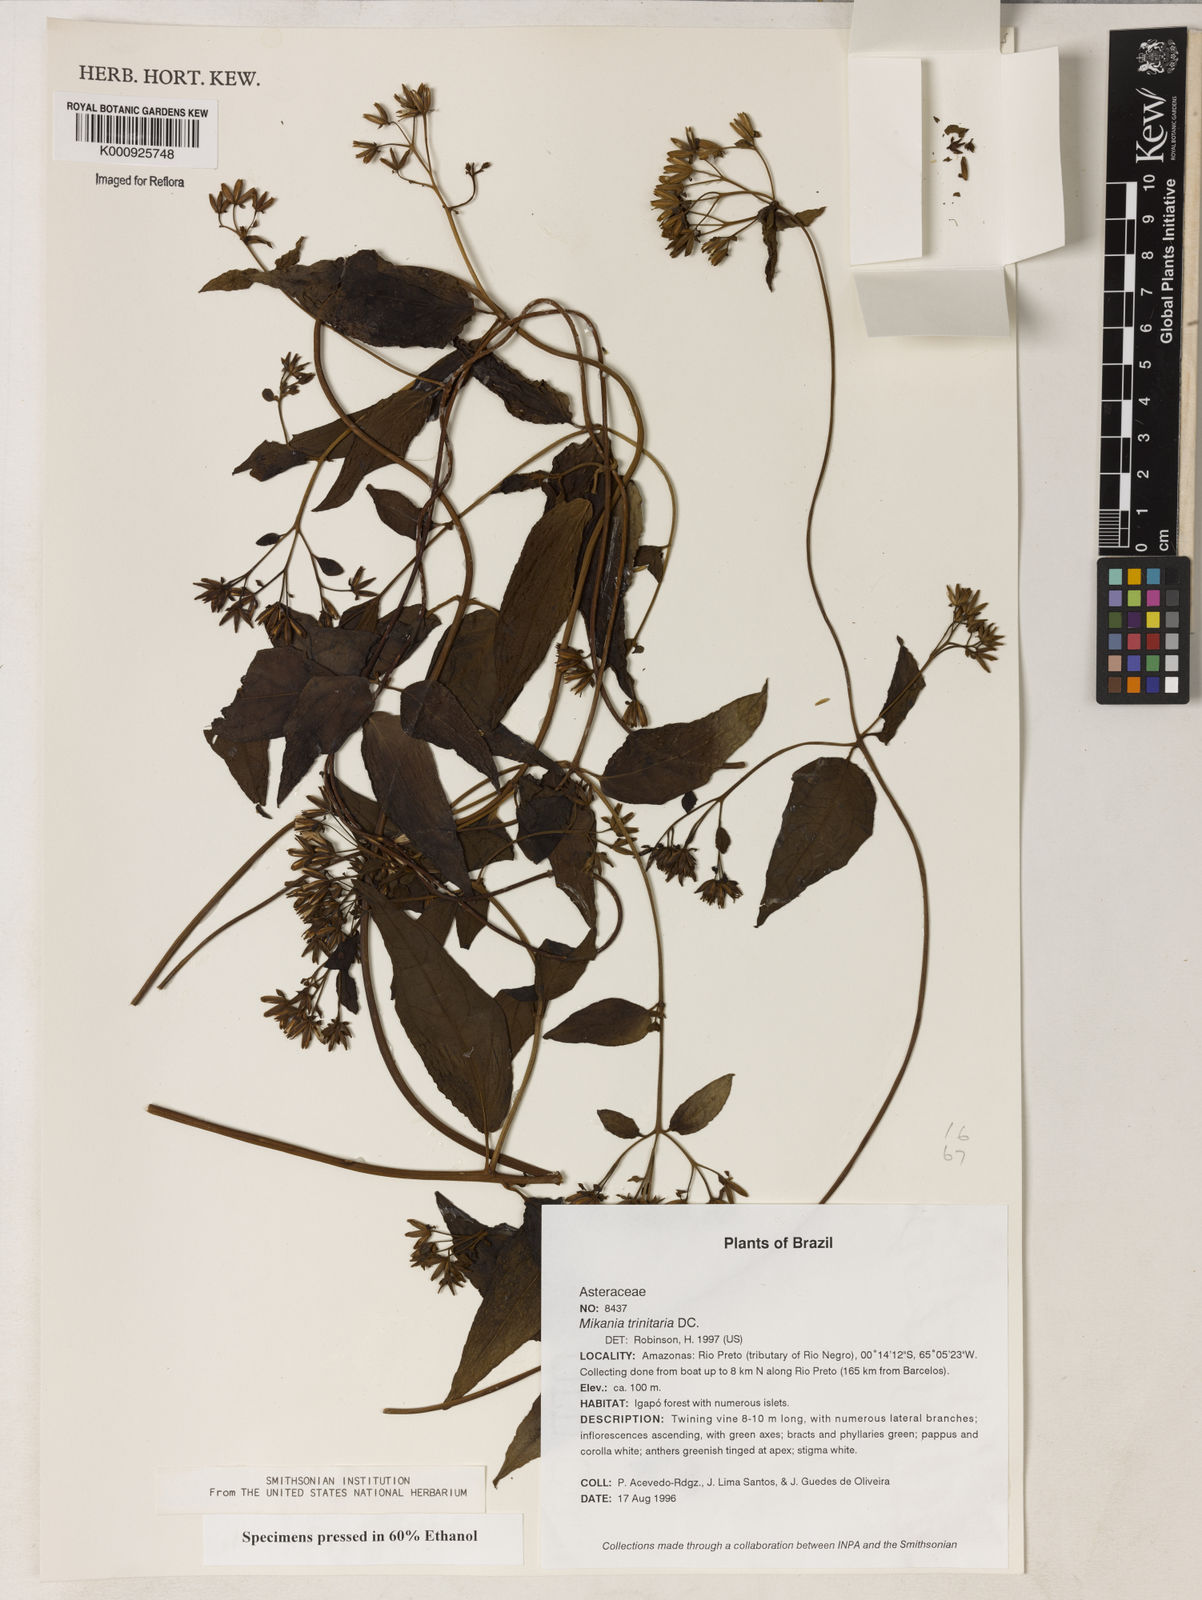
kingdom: Plantae
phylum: Tracheophyta
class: Magnoliopsida
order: Asterales
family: Asteraceae
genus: Mikania
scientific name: Mikania trinitaria
